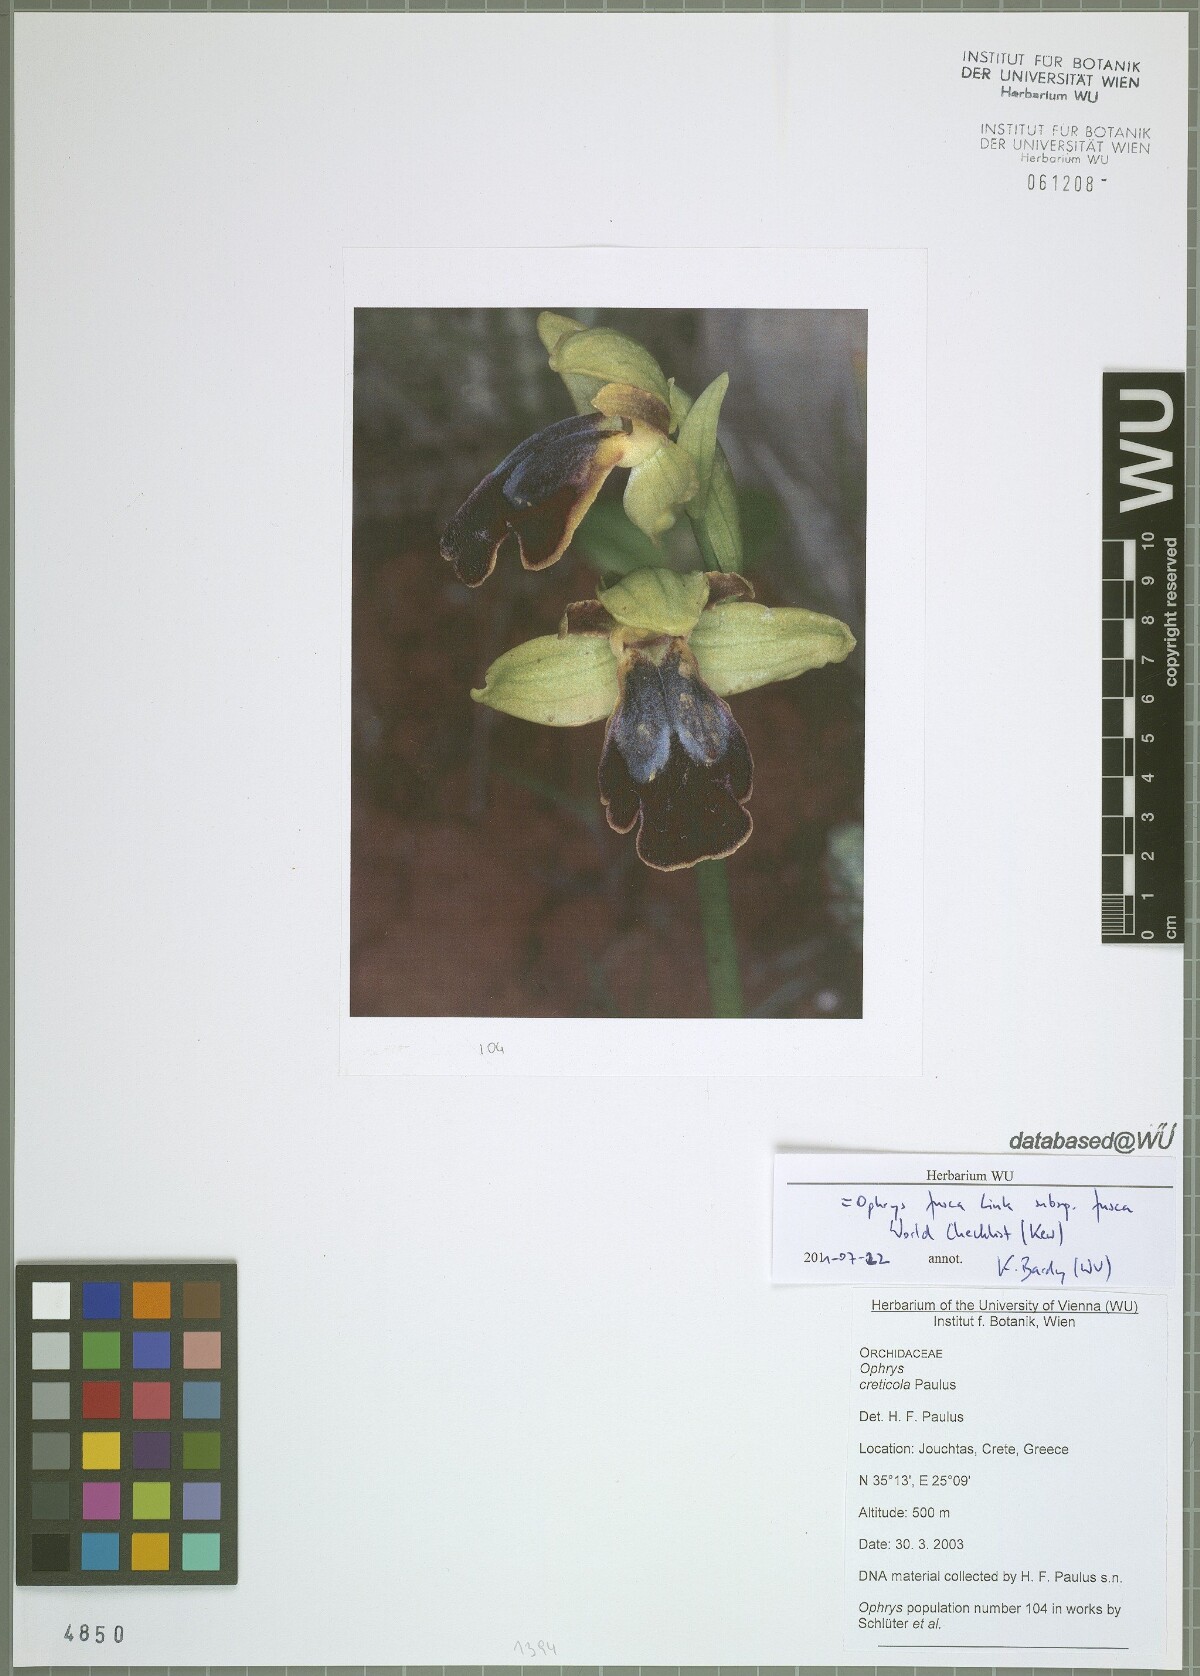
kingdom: Plantae
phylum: Tracheophyta
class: Liliopsida
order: Asparagales
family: Orchidaceae
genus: Ophrys
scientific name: Ophrys fusca
